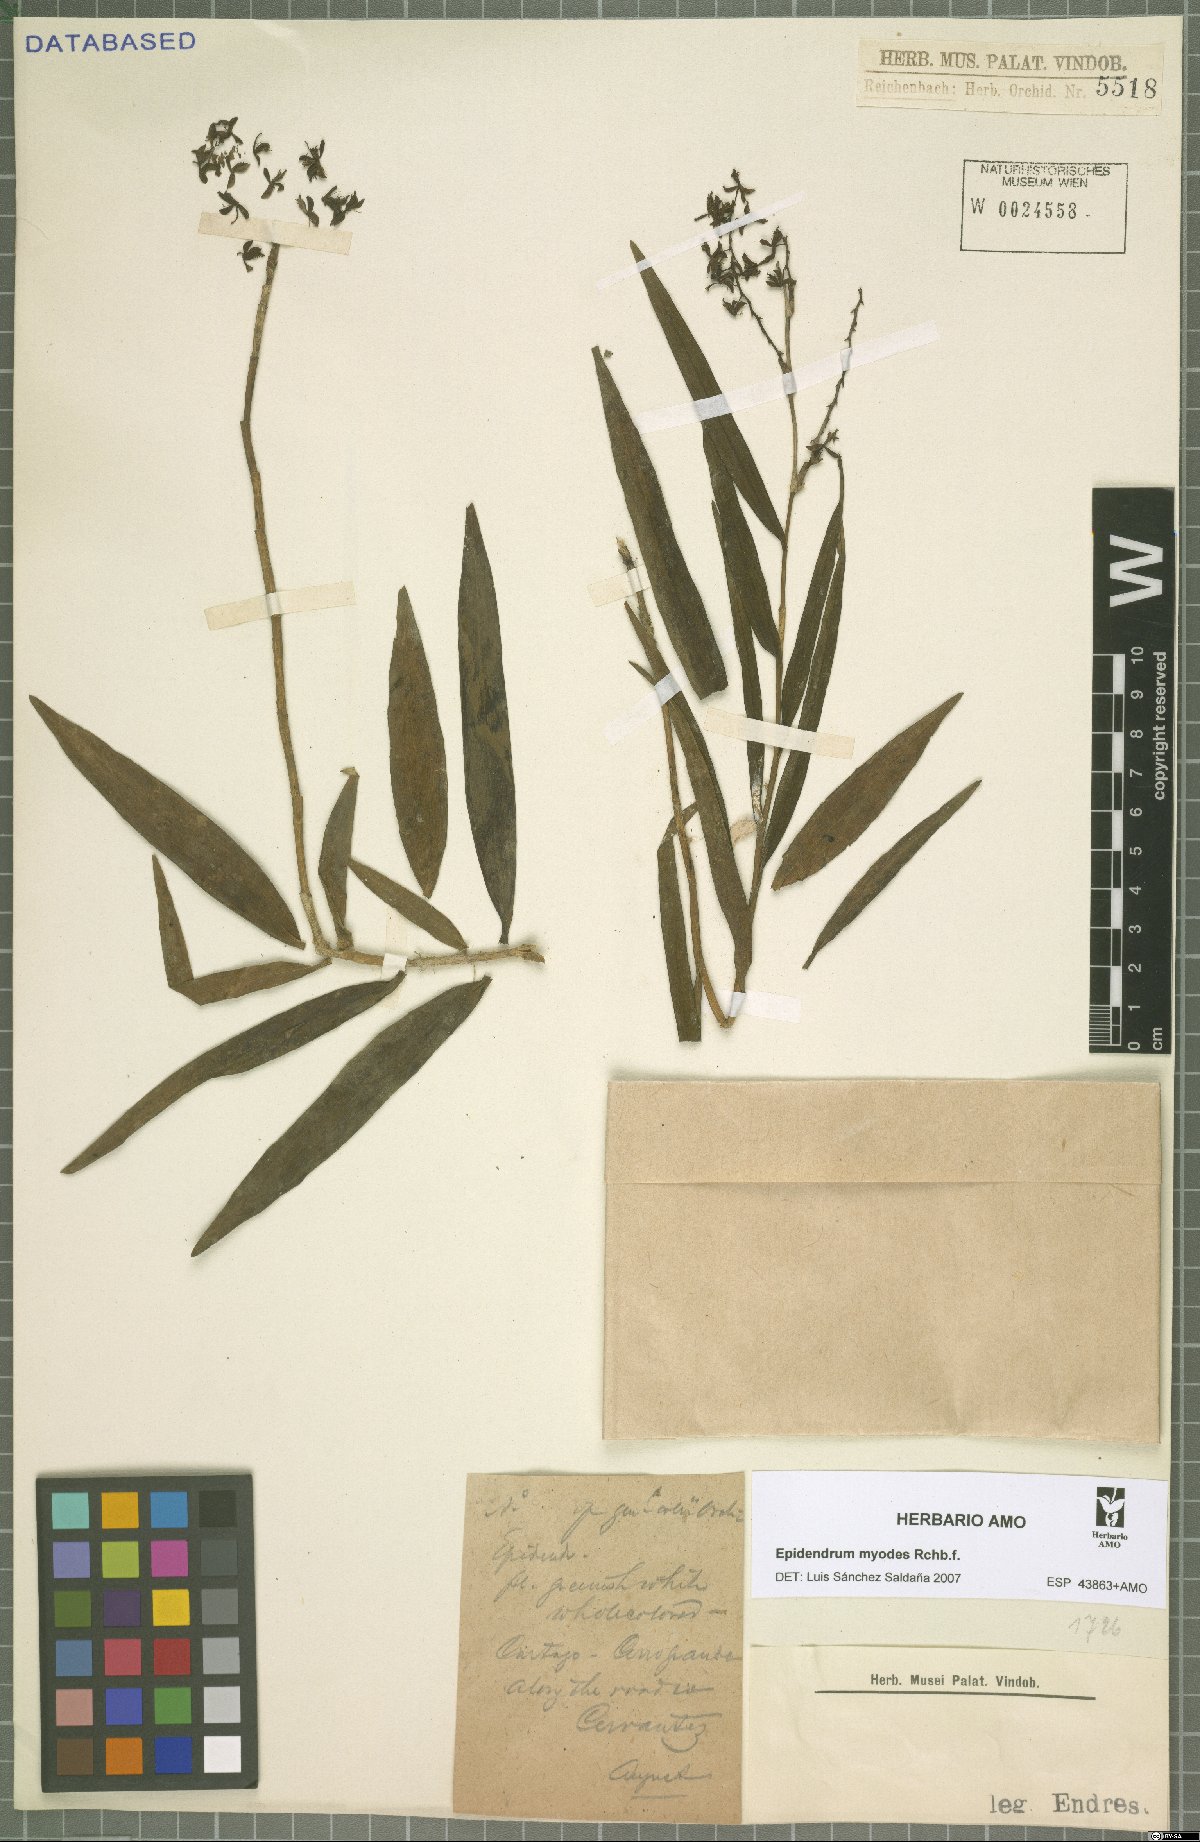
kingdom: Plantae
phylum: Tracheophyta
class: Liliopsida
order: Asparagales
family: Orchidaceae
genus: Epidendrum
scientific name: Epidendrum myodes
